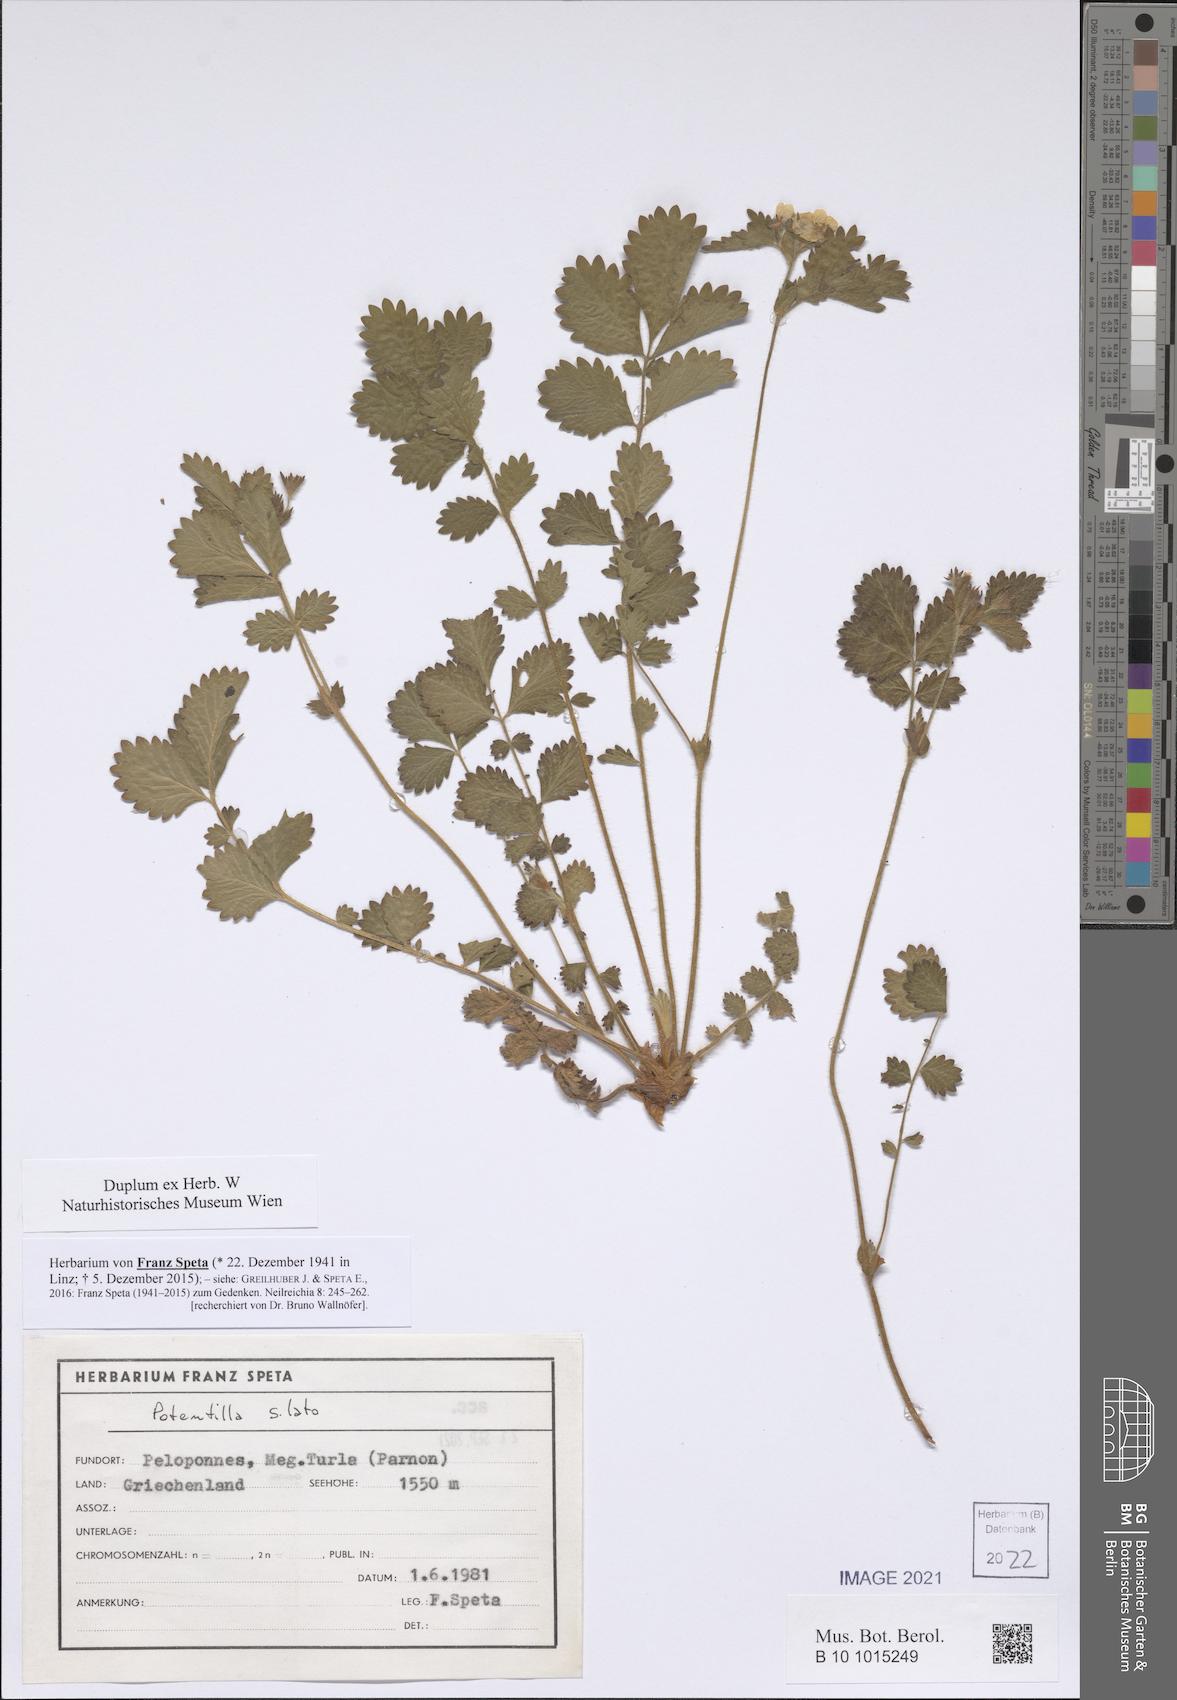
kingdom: Plantae
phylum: Tracheophyta
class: Magnoliopsida
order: Rosales
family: Rosaceae
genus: Potentilla
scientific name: Potentilla
